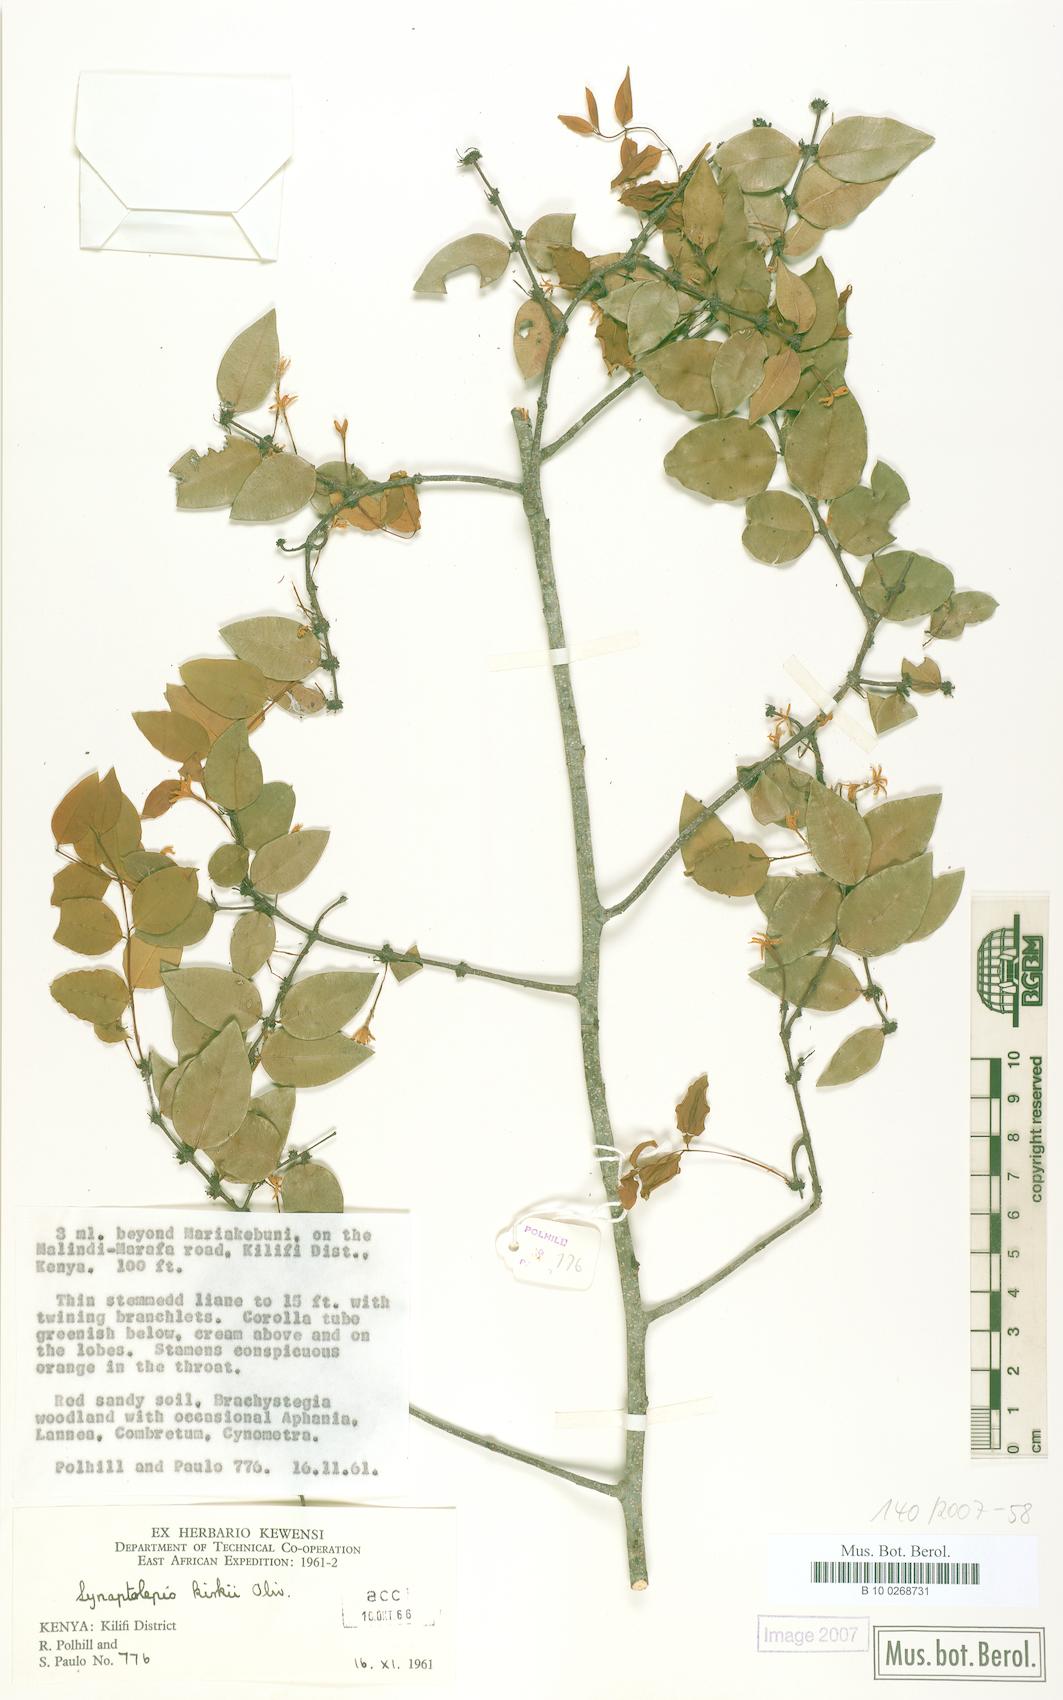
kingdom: Plantae
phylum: Tracheophyta
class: Magnoliopsida
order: Malvales
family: Thymelaeaceae
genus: Synaptolepis
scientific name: Synaptolepis kirkii
